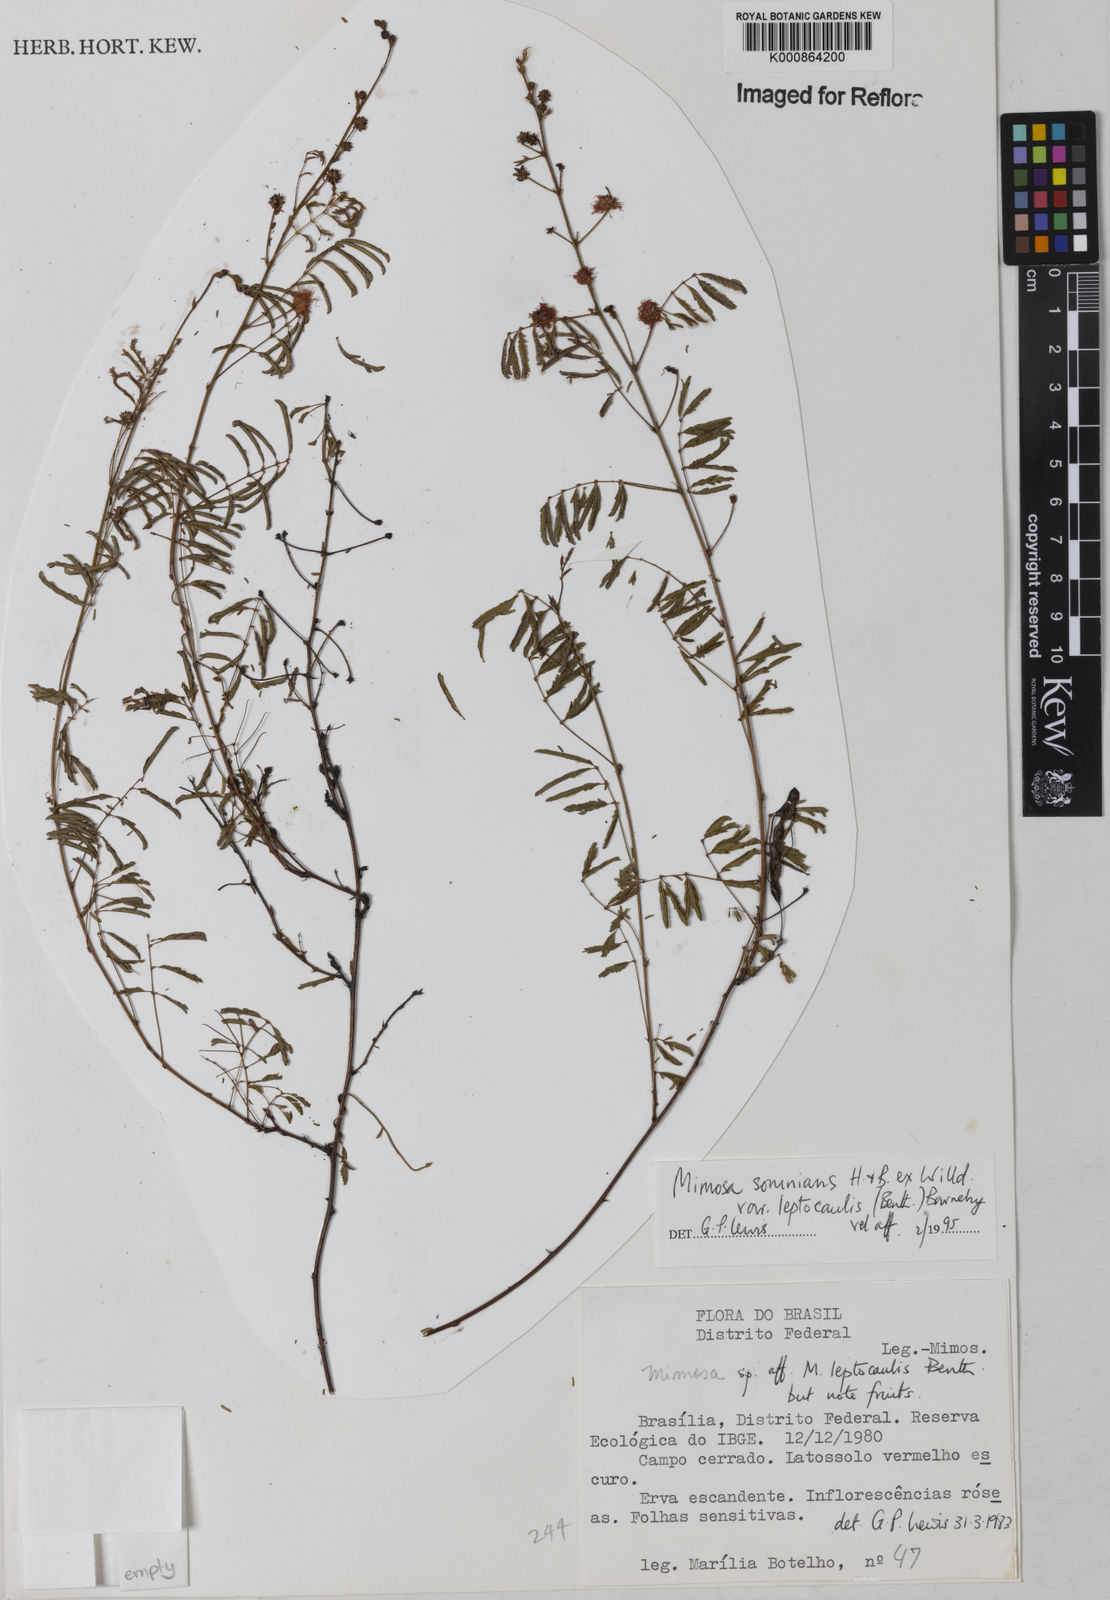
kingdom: Plantae
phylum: Tracheophyta
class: Magnoliopsida
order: Fabales
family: Fabaceae
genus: Mimosa
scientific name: Mimosa somnians
